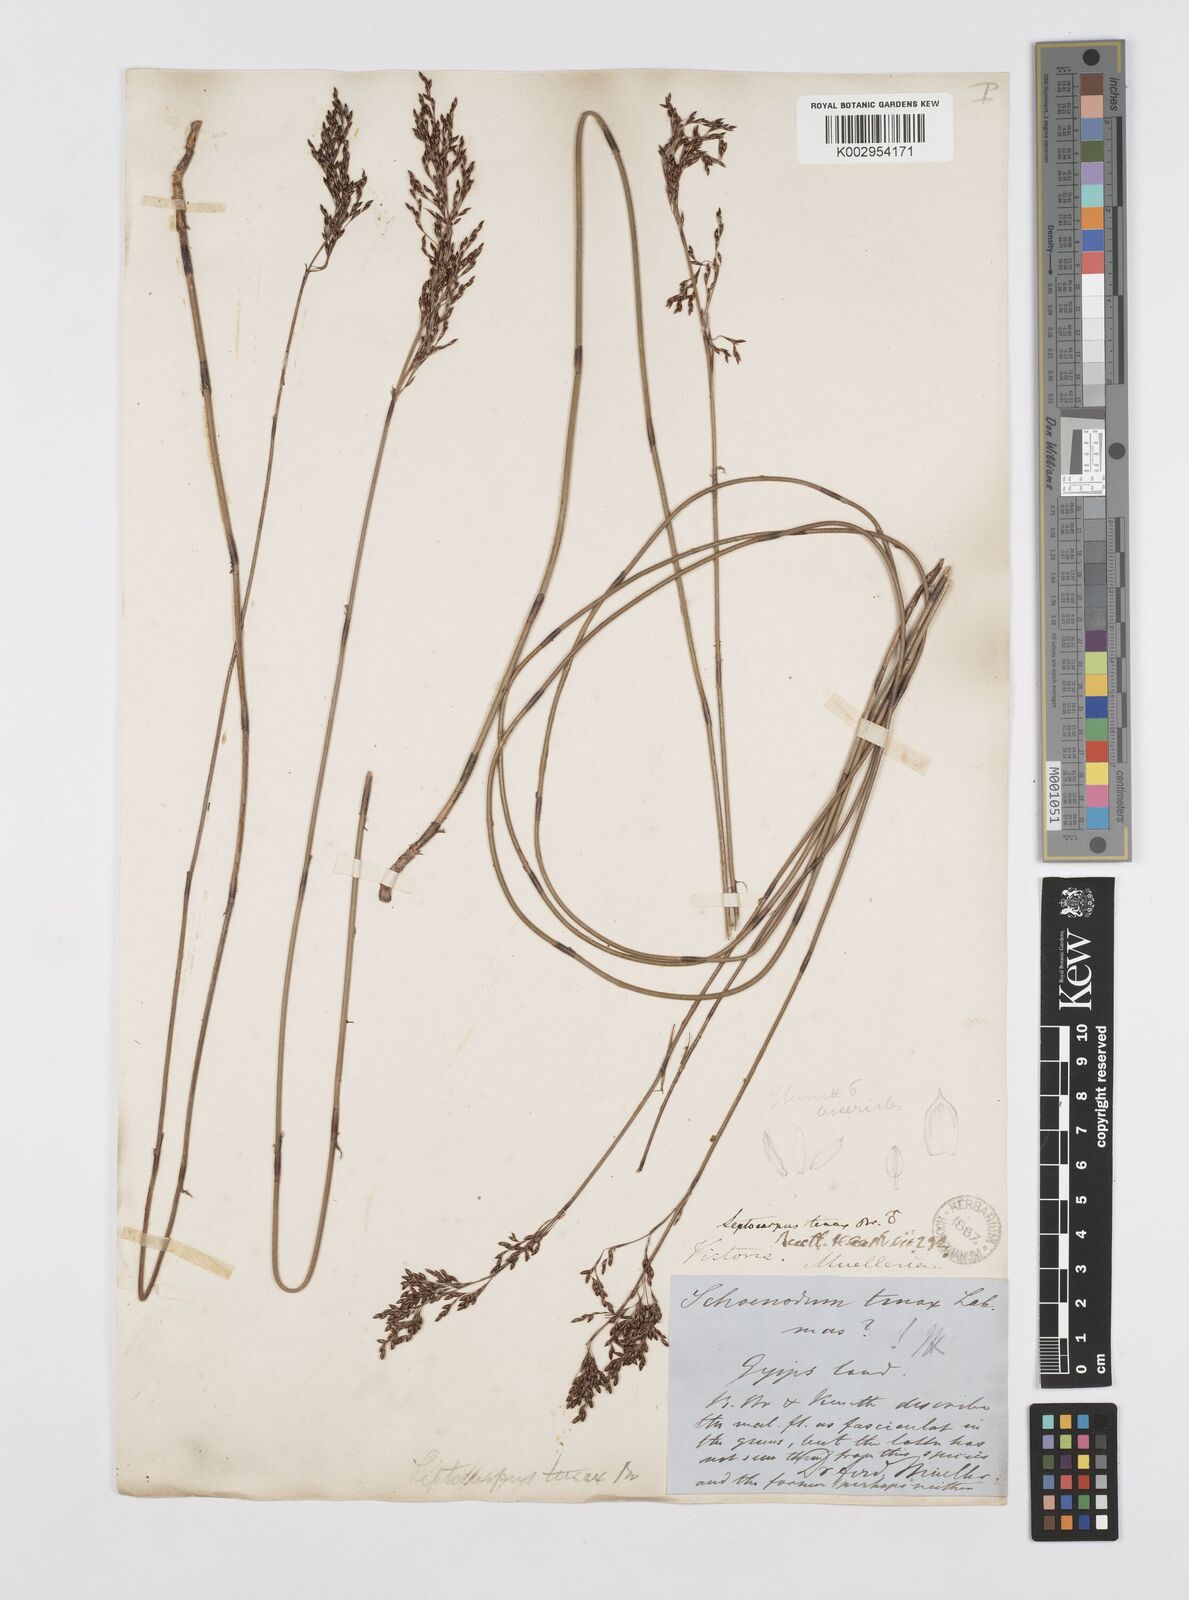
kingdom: Plantae
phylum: Tracheophyta
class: Liliopsida
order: Poales
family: Restionaceae
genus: Leptocarpus
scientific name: Leptocarpus tenax
